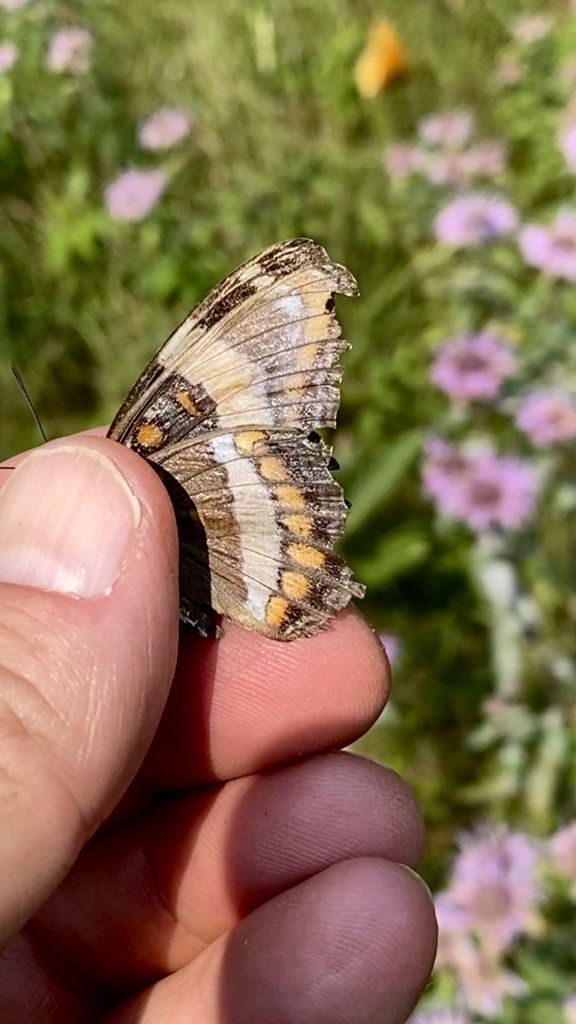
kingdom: Animalia
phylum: Arthropoda
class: Insecta
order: Lepidoptera
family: Nymphalidae
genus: Limenitis
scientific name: Limenitis arthemis
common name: Red-spotted Admiral
